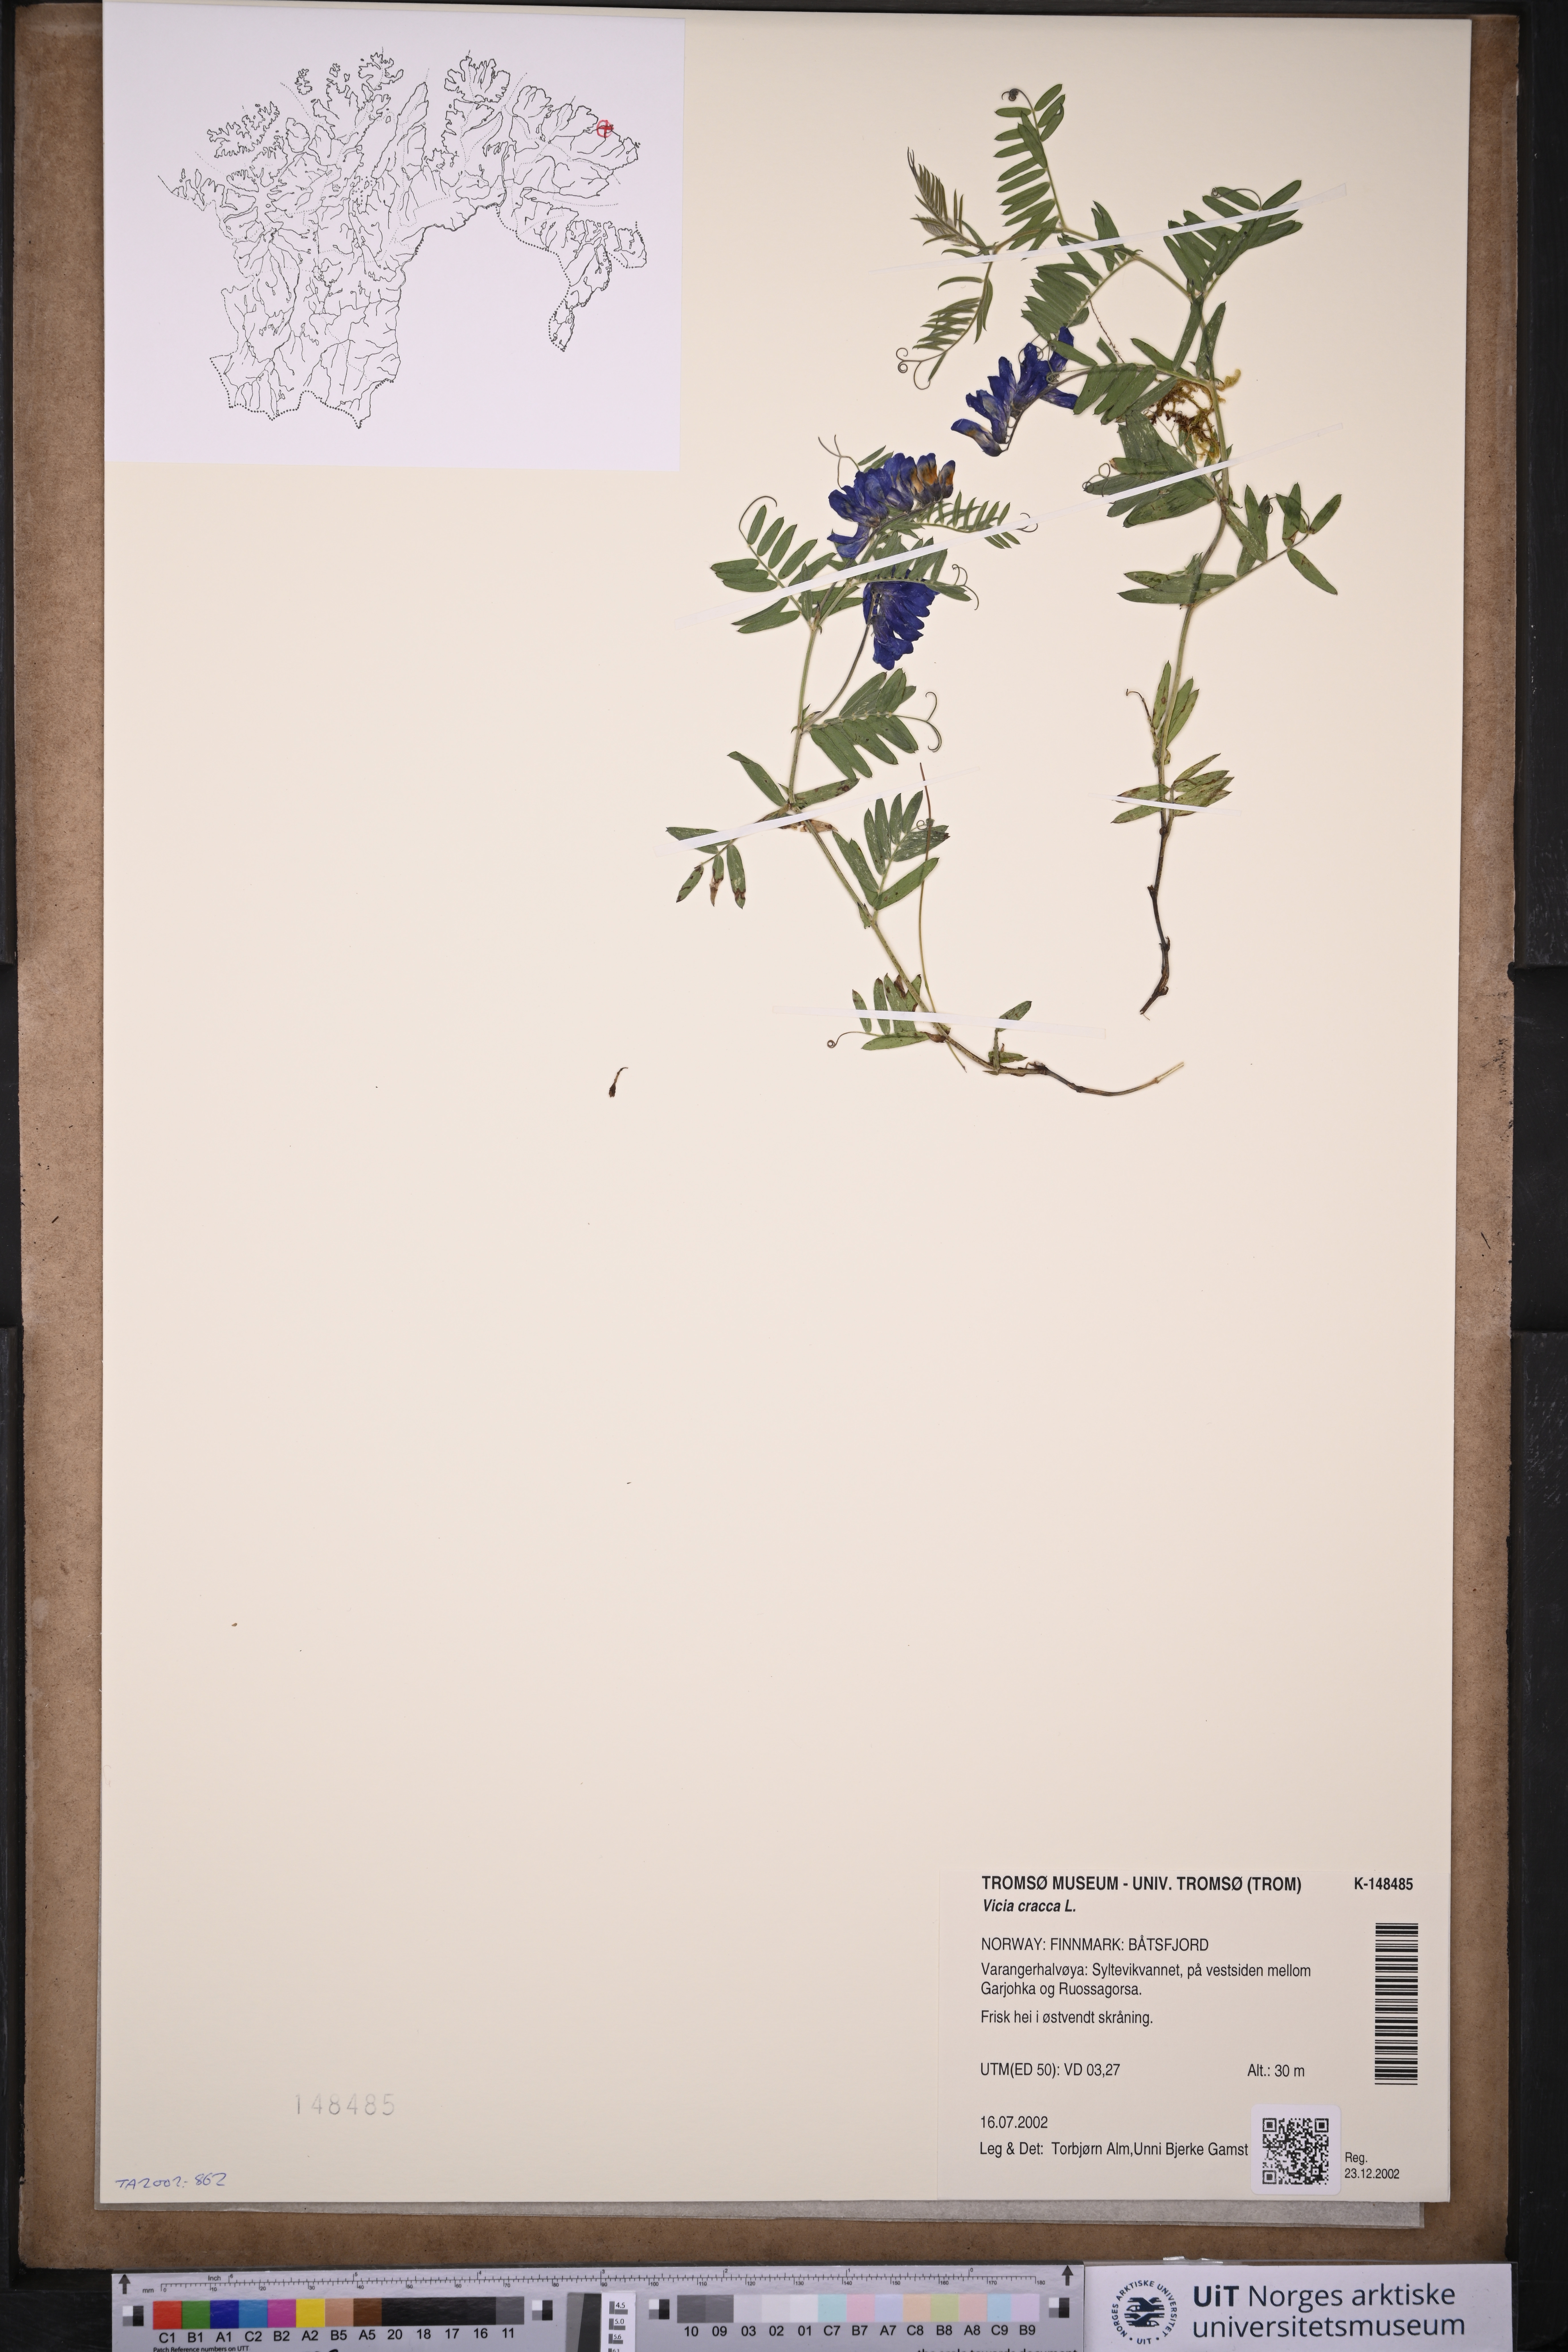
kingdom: Plantae
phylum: Tracheophyta
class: Magnoliopsida
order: Fabales
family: Fabaceae
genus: Vicia
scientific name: Vicia cracca
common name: Bird vetch
